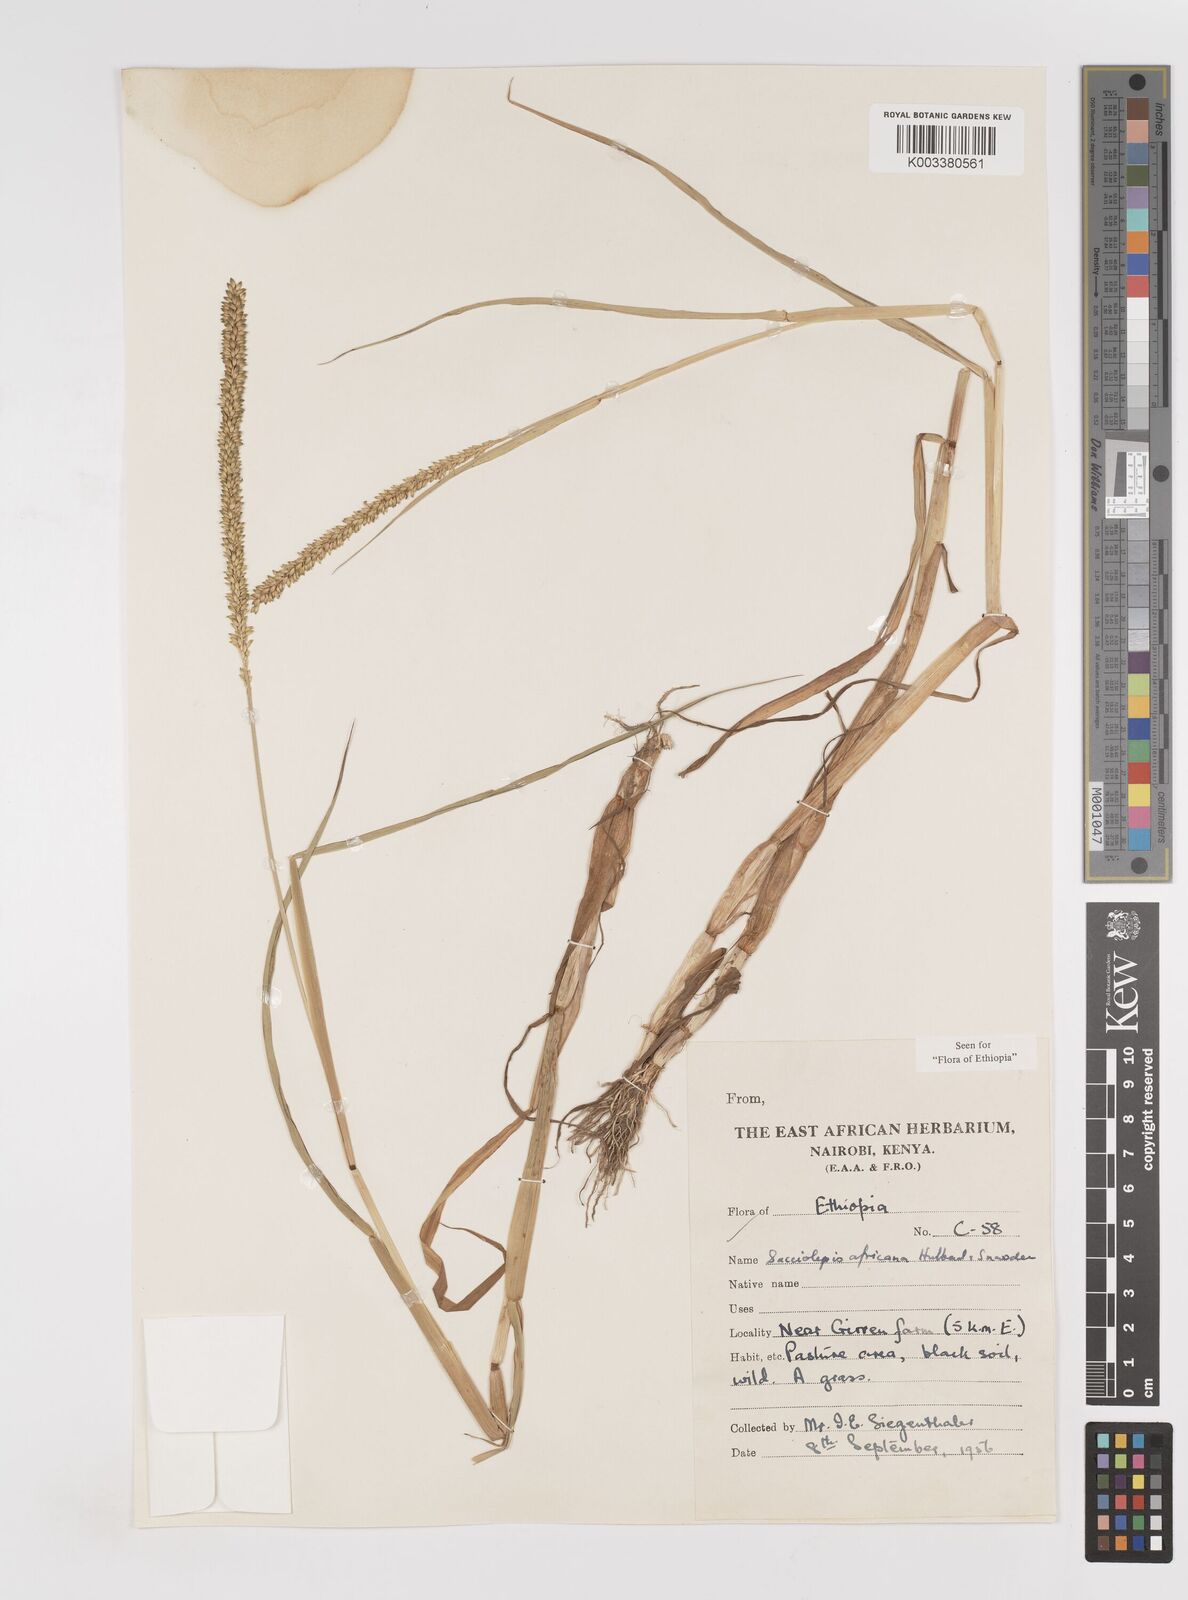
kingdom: Plantae
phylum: Tracheophyta
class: Liliopsida
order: Poales
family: Poaceae
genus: Sacciolepis
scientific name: Sacciolepis africana
